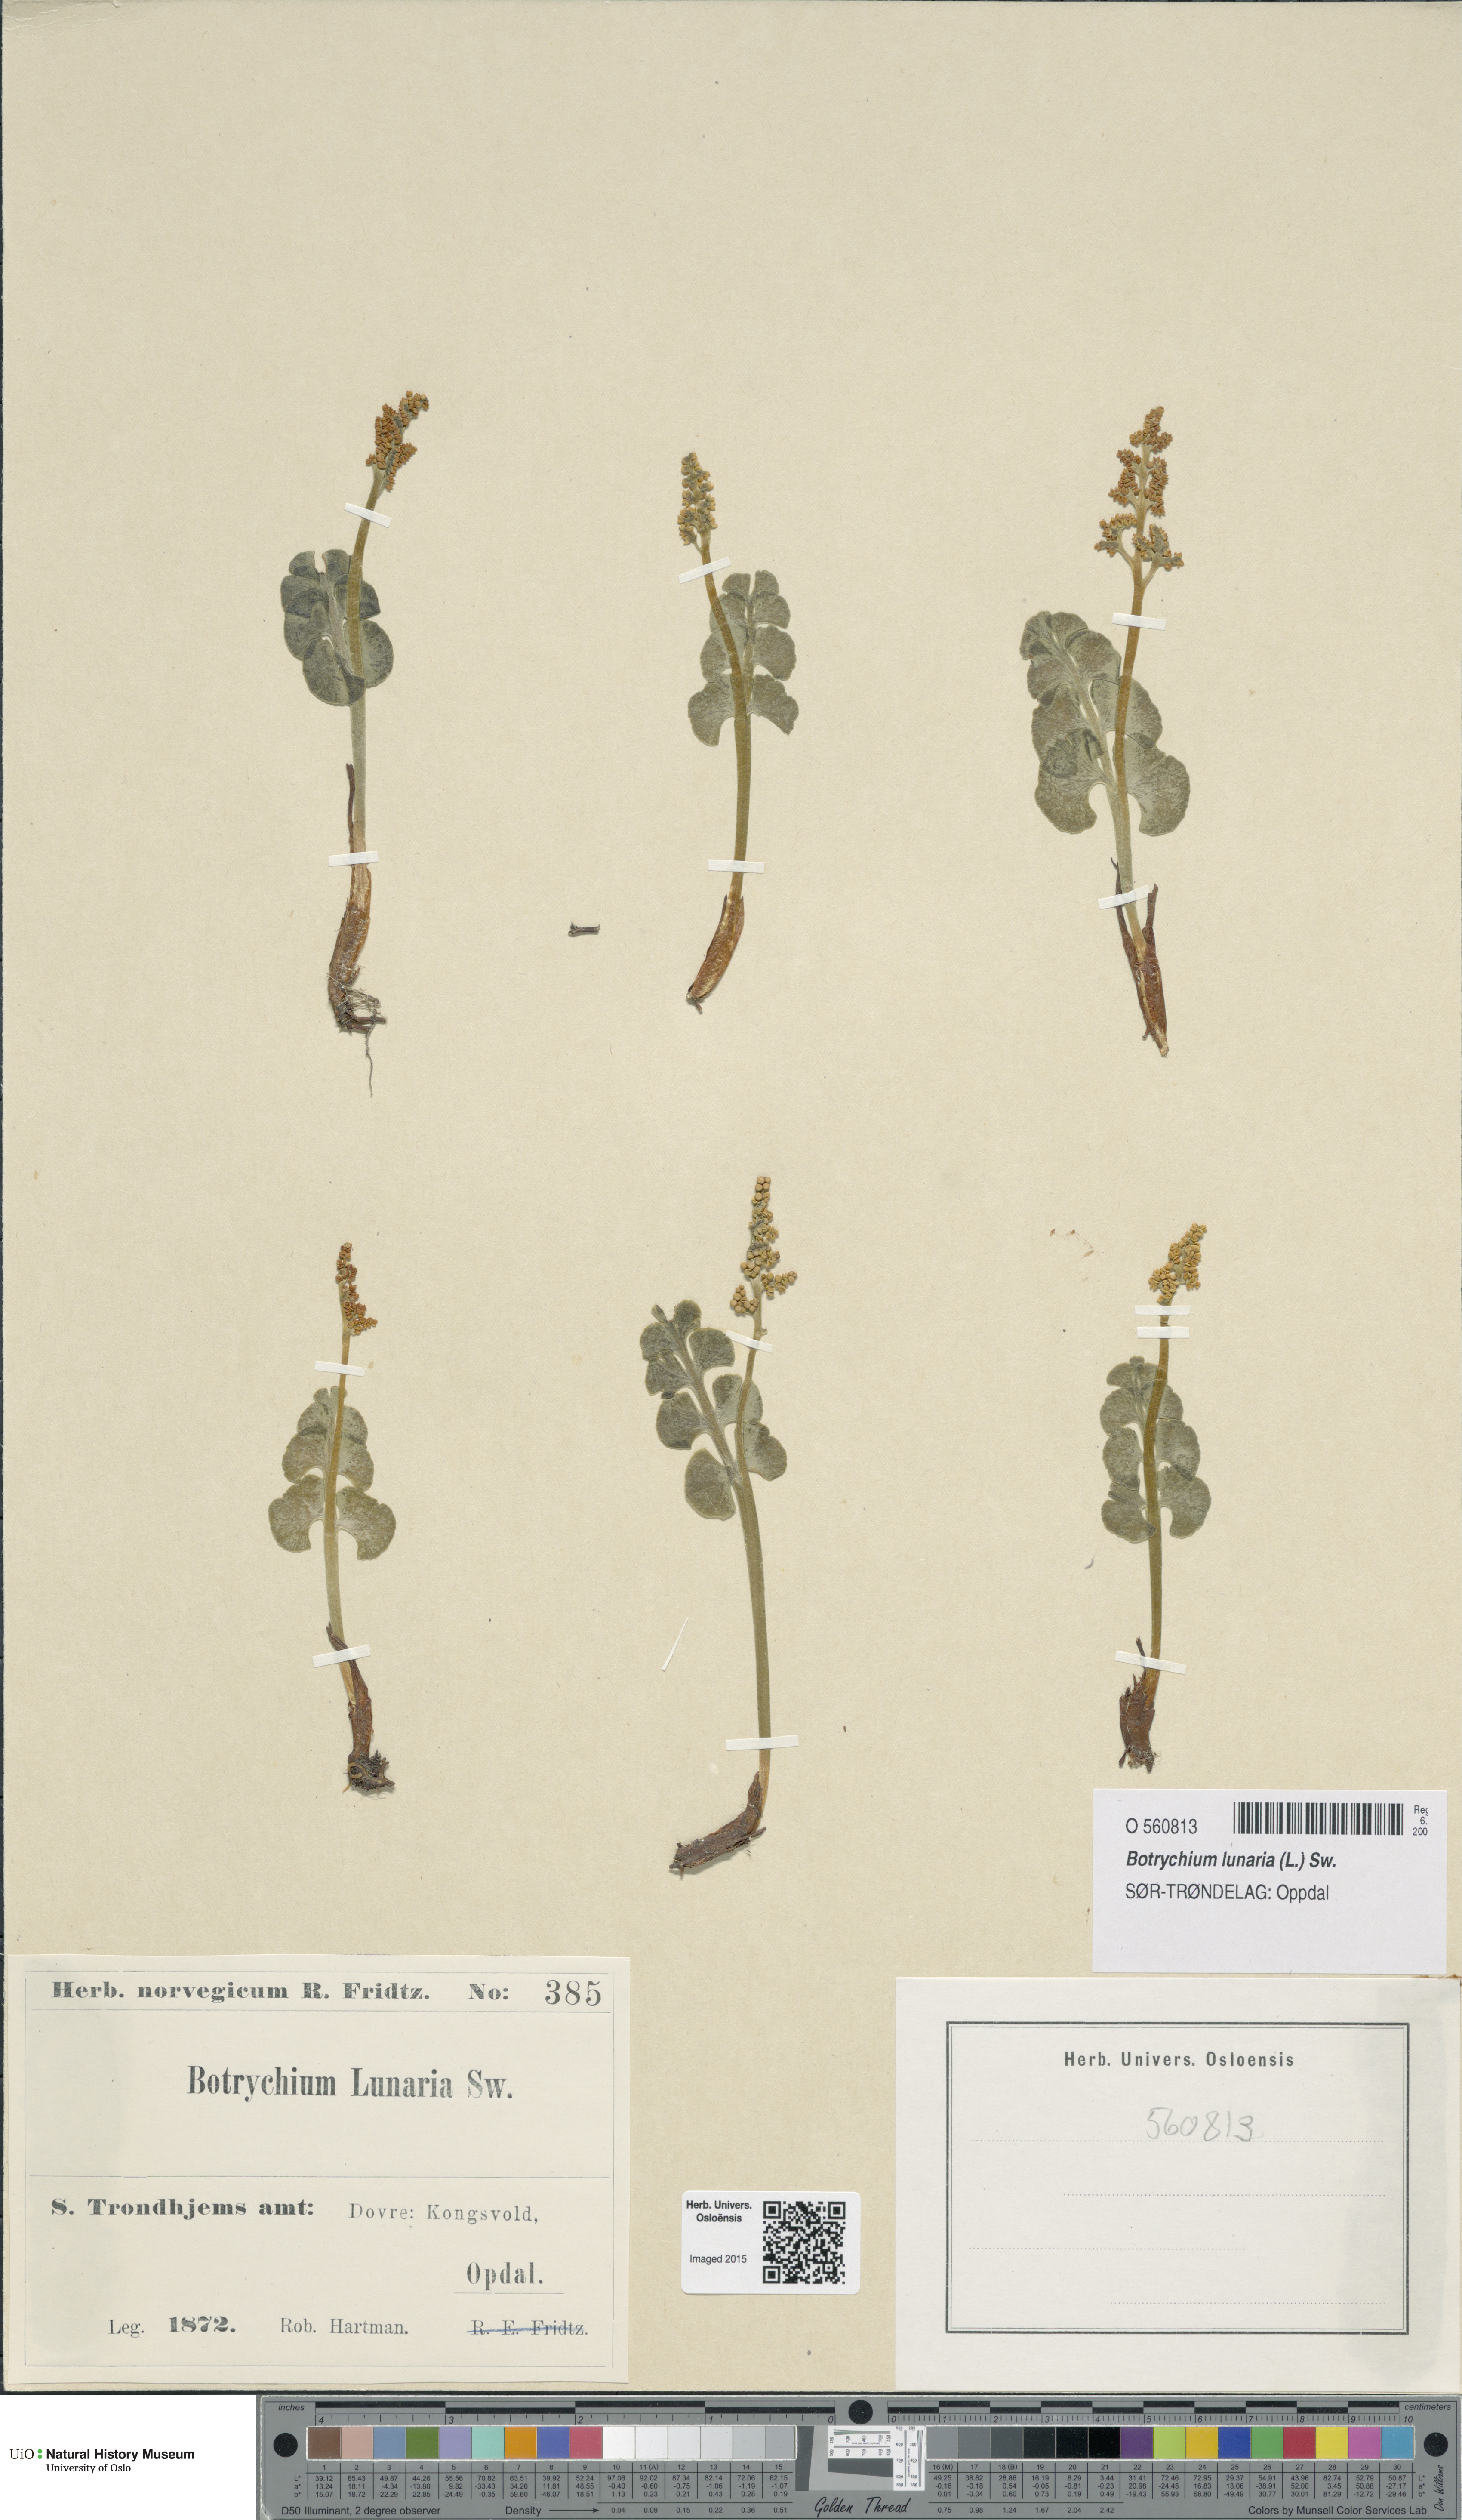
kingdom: Plantae
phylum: Tracheophyta
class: Polypodiopsida
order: Ophioglossales
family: Ophioglossaceae
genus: Botrychium
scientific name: Botrychium lunaria
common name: Moonwort
